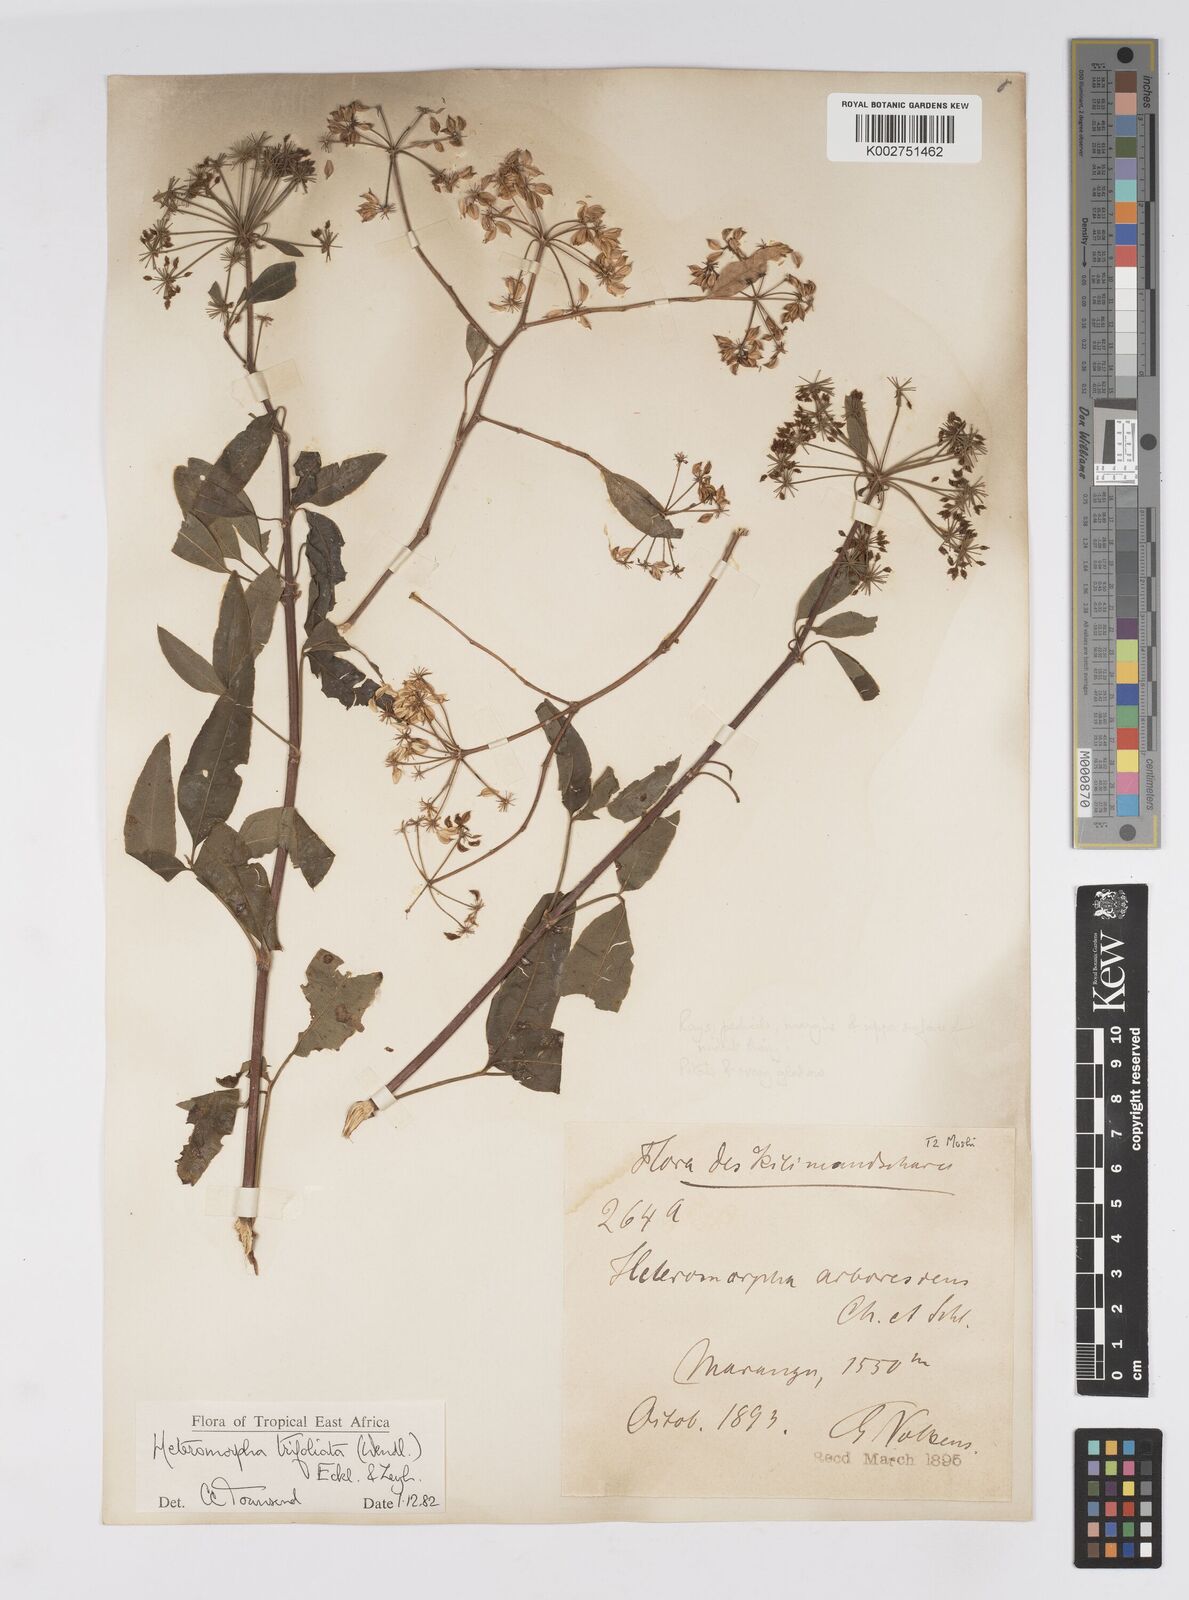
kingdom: Plantae
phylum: Tracheophyta
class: Magnoliopsida
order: Apiales
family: Apiaceae
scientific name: Apiaceae
